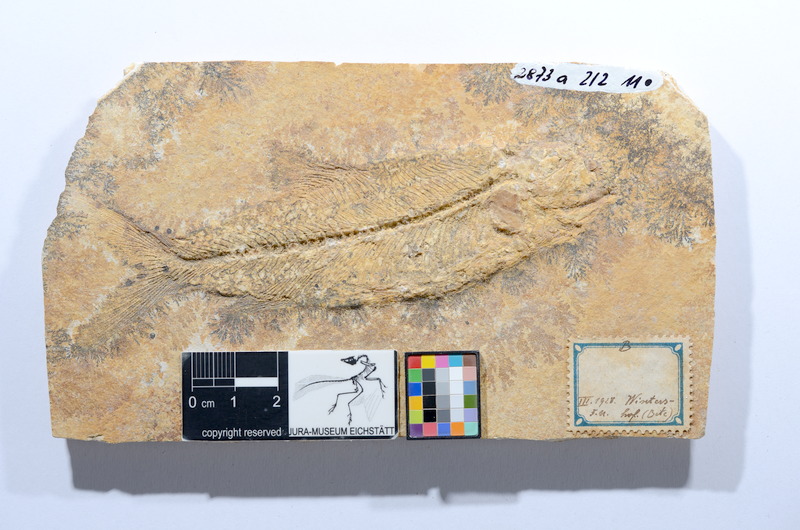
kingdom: Animalia
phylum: Chordata
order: Elopiformes
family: Anaethalionidae
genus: Anaethalion
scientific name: Anaethalion subovatus
